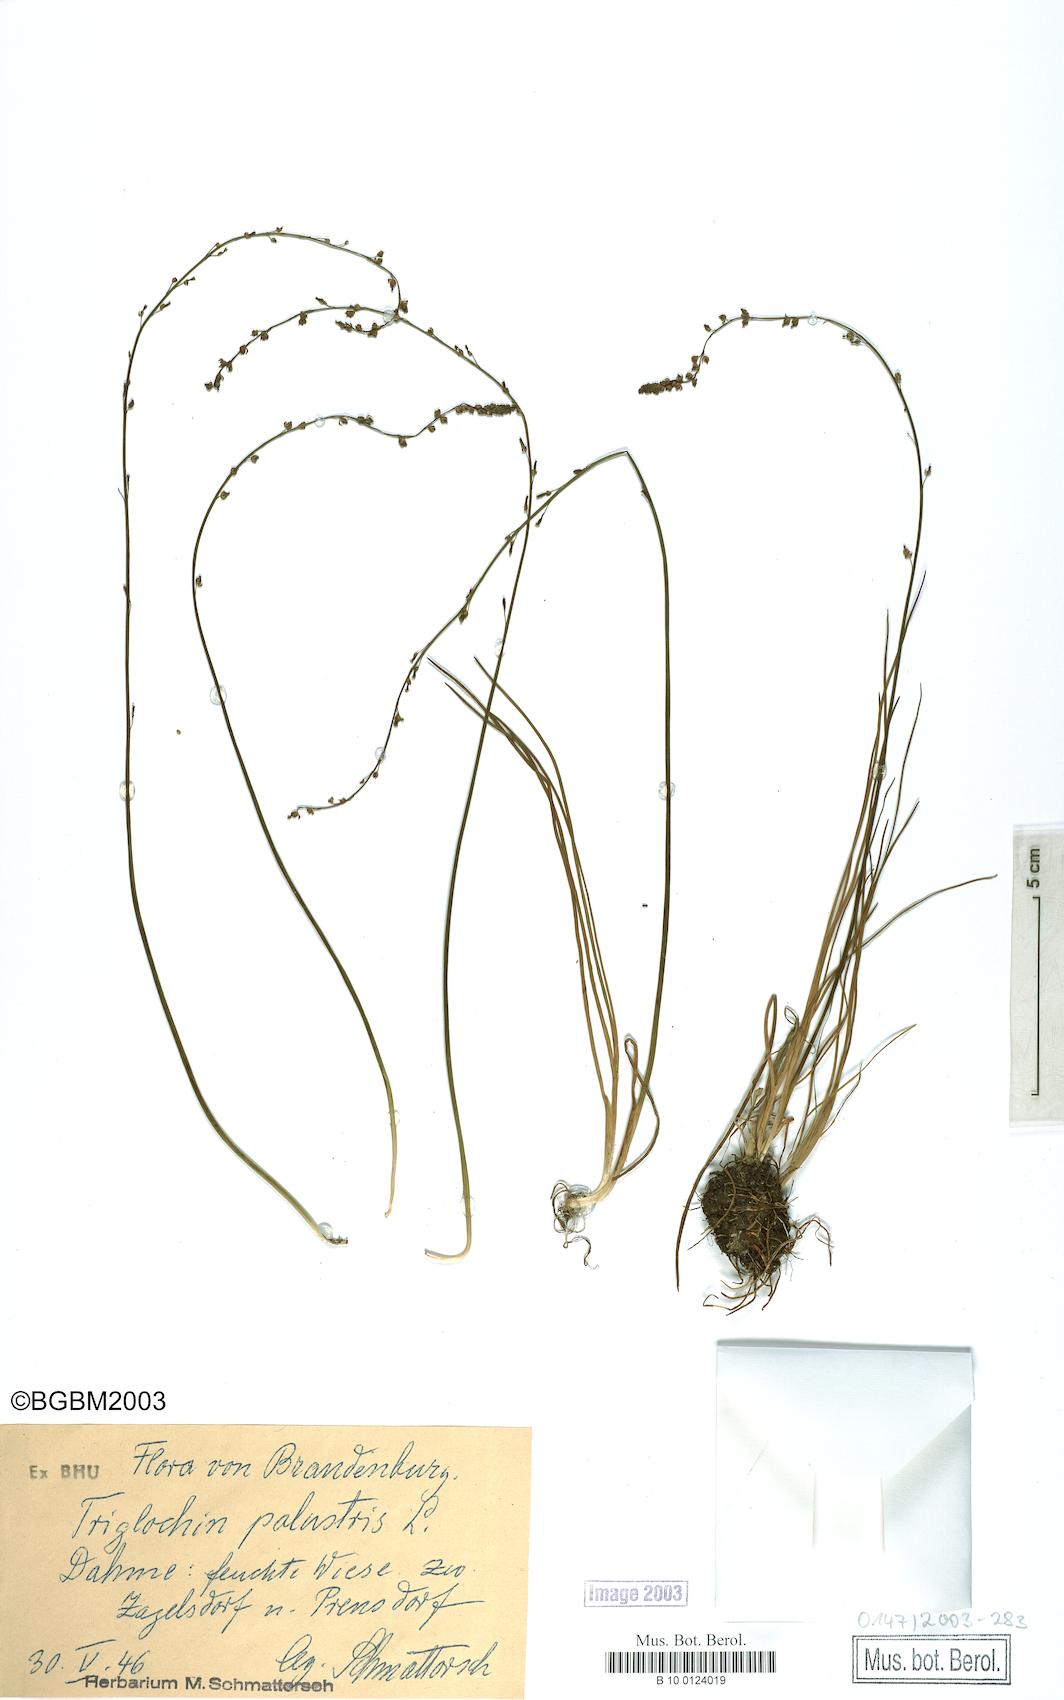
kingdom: Plantae
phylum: Tracheophyta
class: Liliopsida
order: Alismatales
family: Juncaginaceae
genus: Triglochin
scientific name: Triglochin palustris
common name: Marsh arrowgrass
